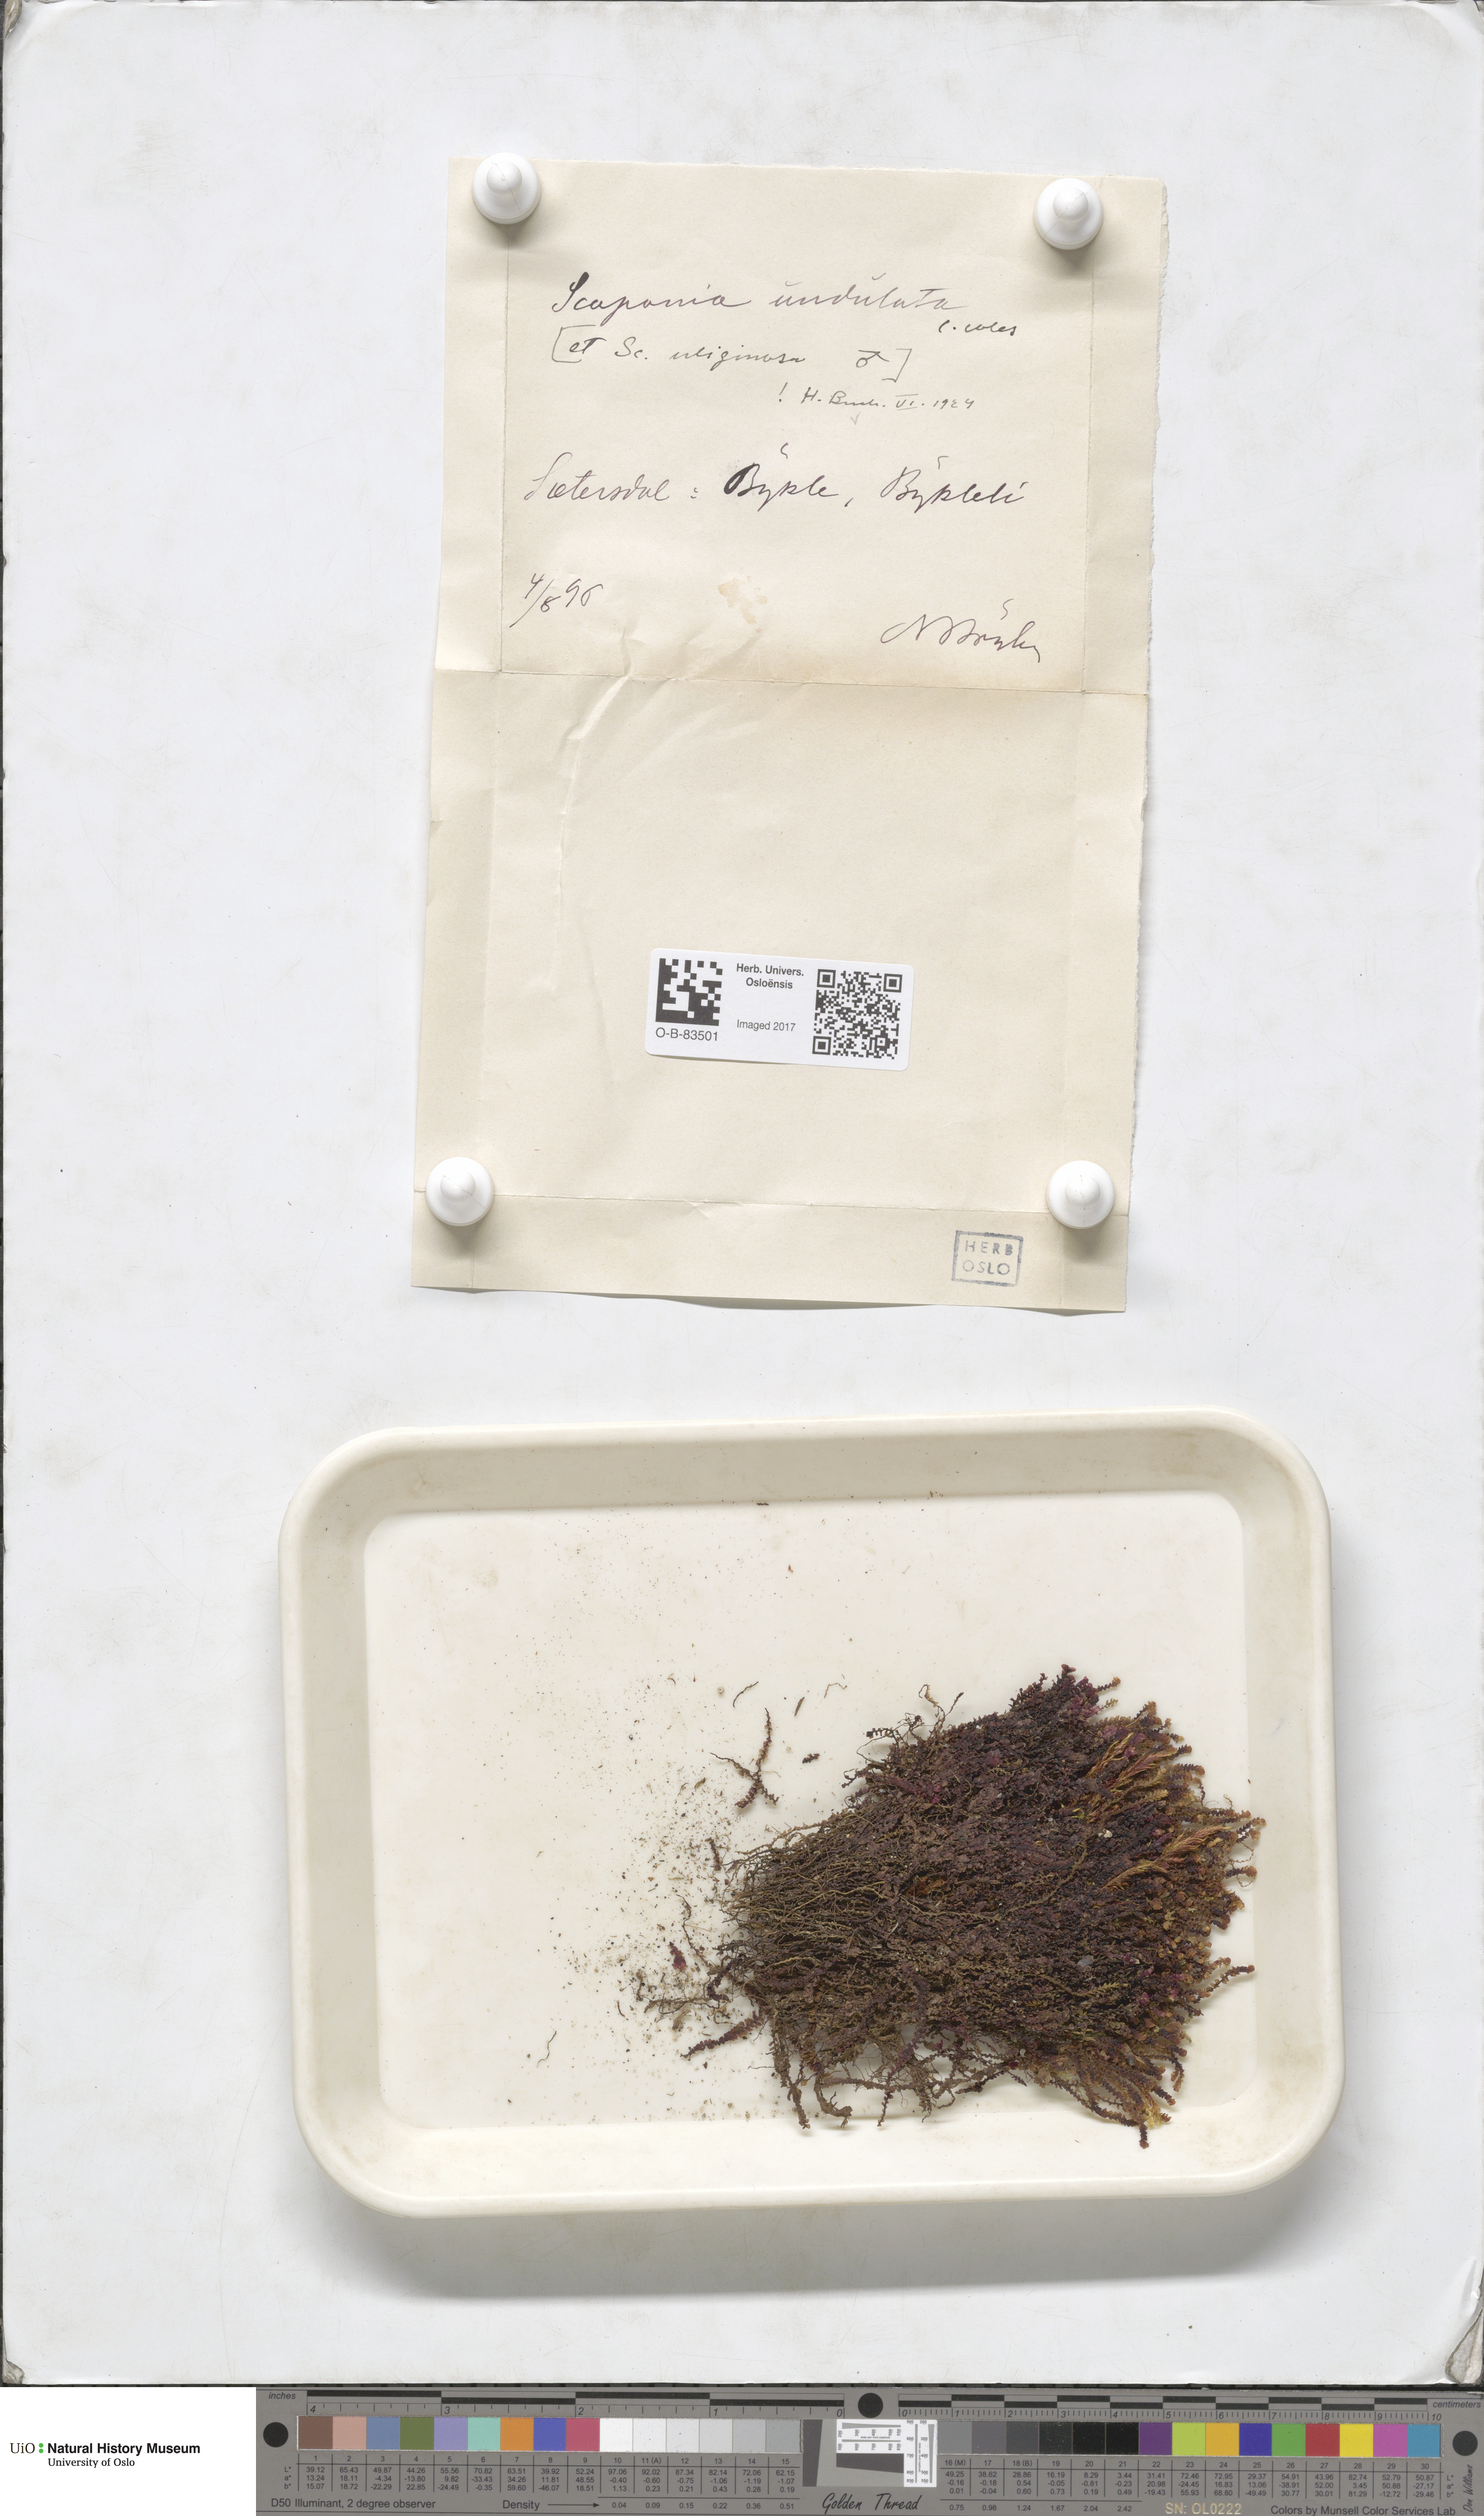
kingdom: Plantae
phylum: Marchantiophyta
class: Jungermanniopsida
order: Jungermanniales
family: Scapaniaceae
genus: Scapania
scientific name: Scapania undulata
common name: Water earwort
